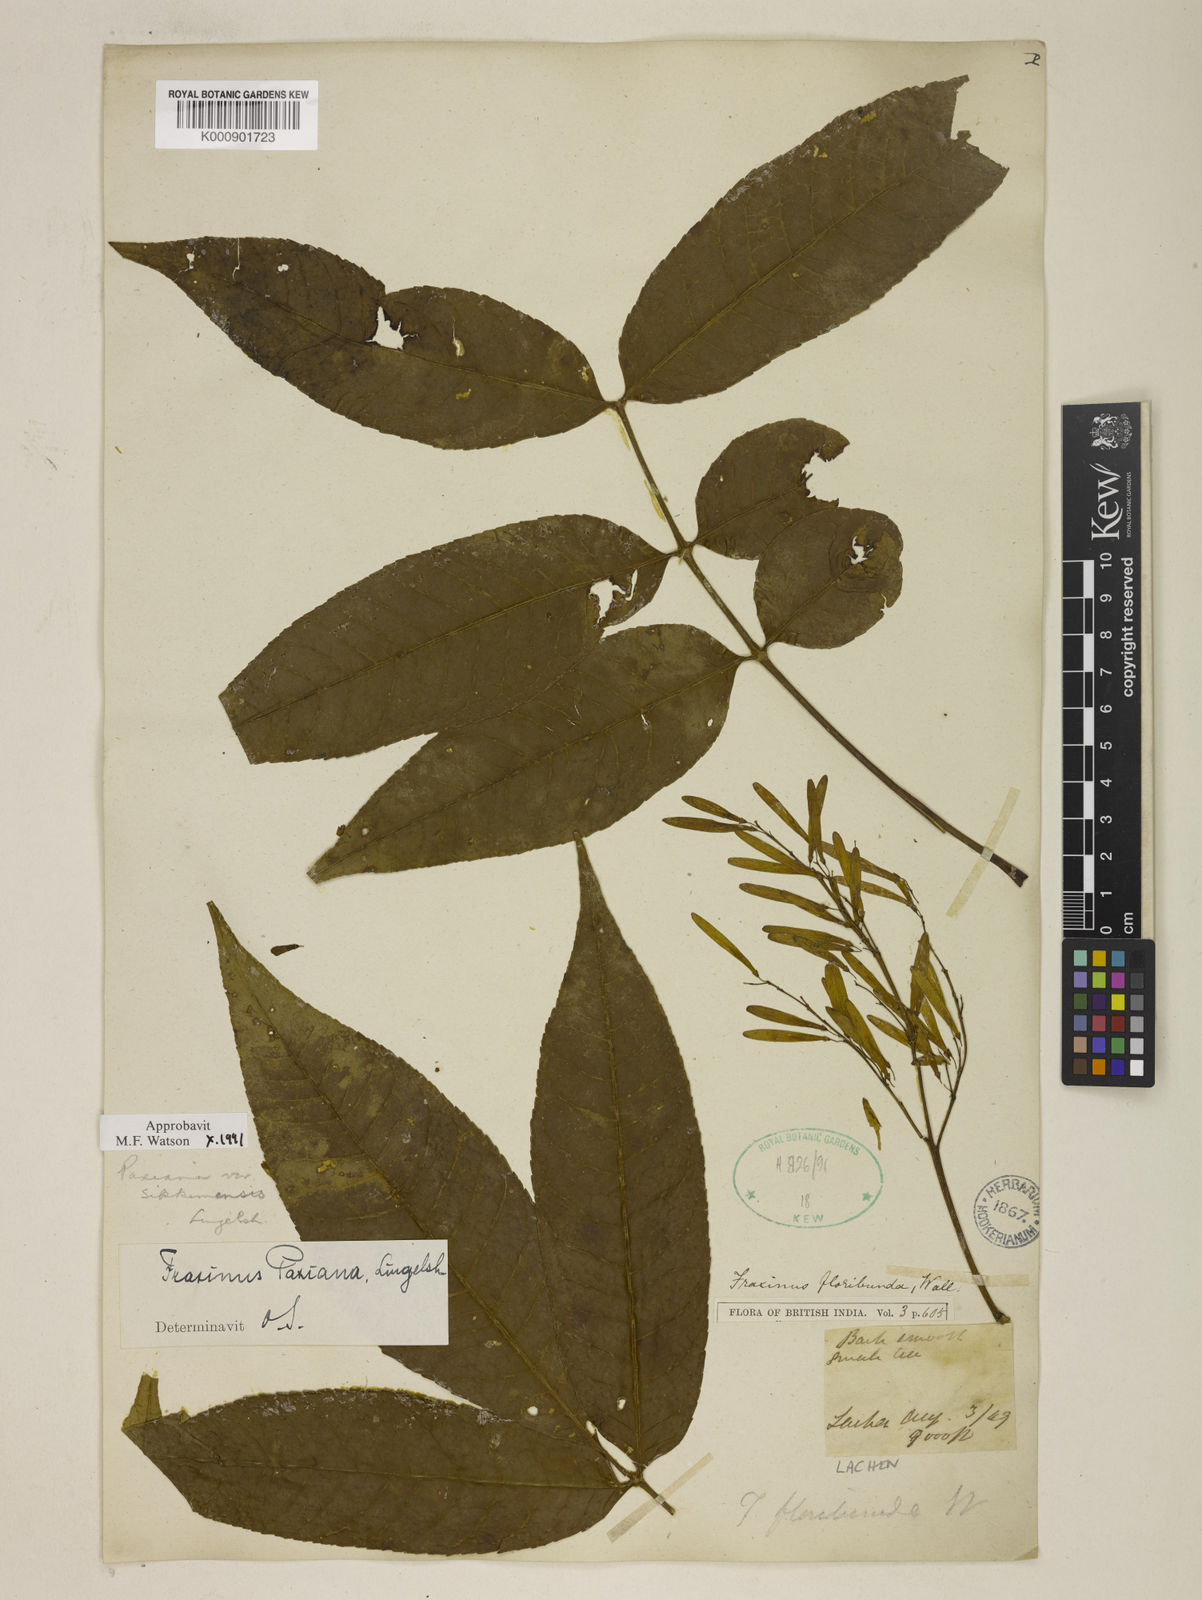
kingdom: Plantae
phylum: Tracheophyta
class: Magnoliopsida
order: Lamiales
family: Oleaceae
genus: Fraxinus
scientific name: Fraxinus paxiana
